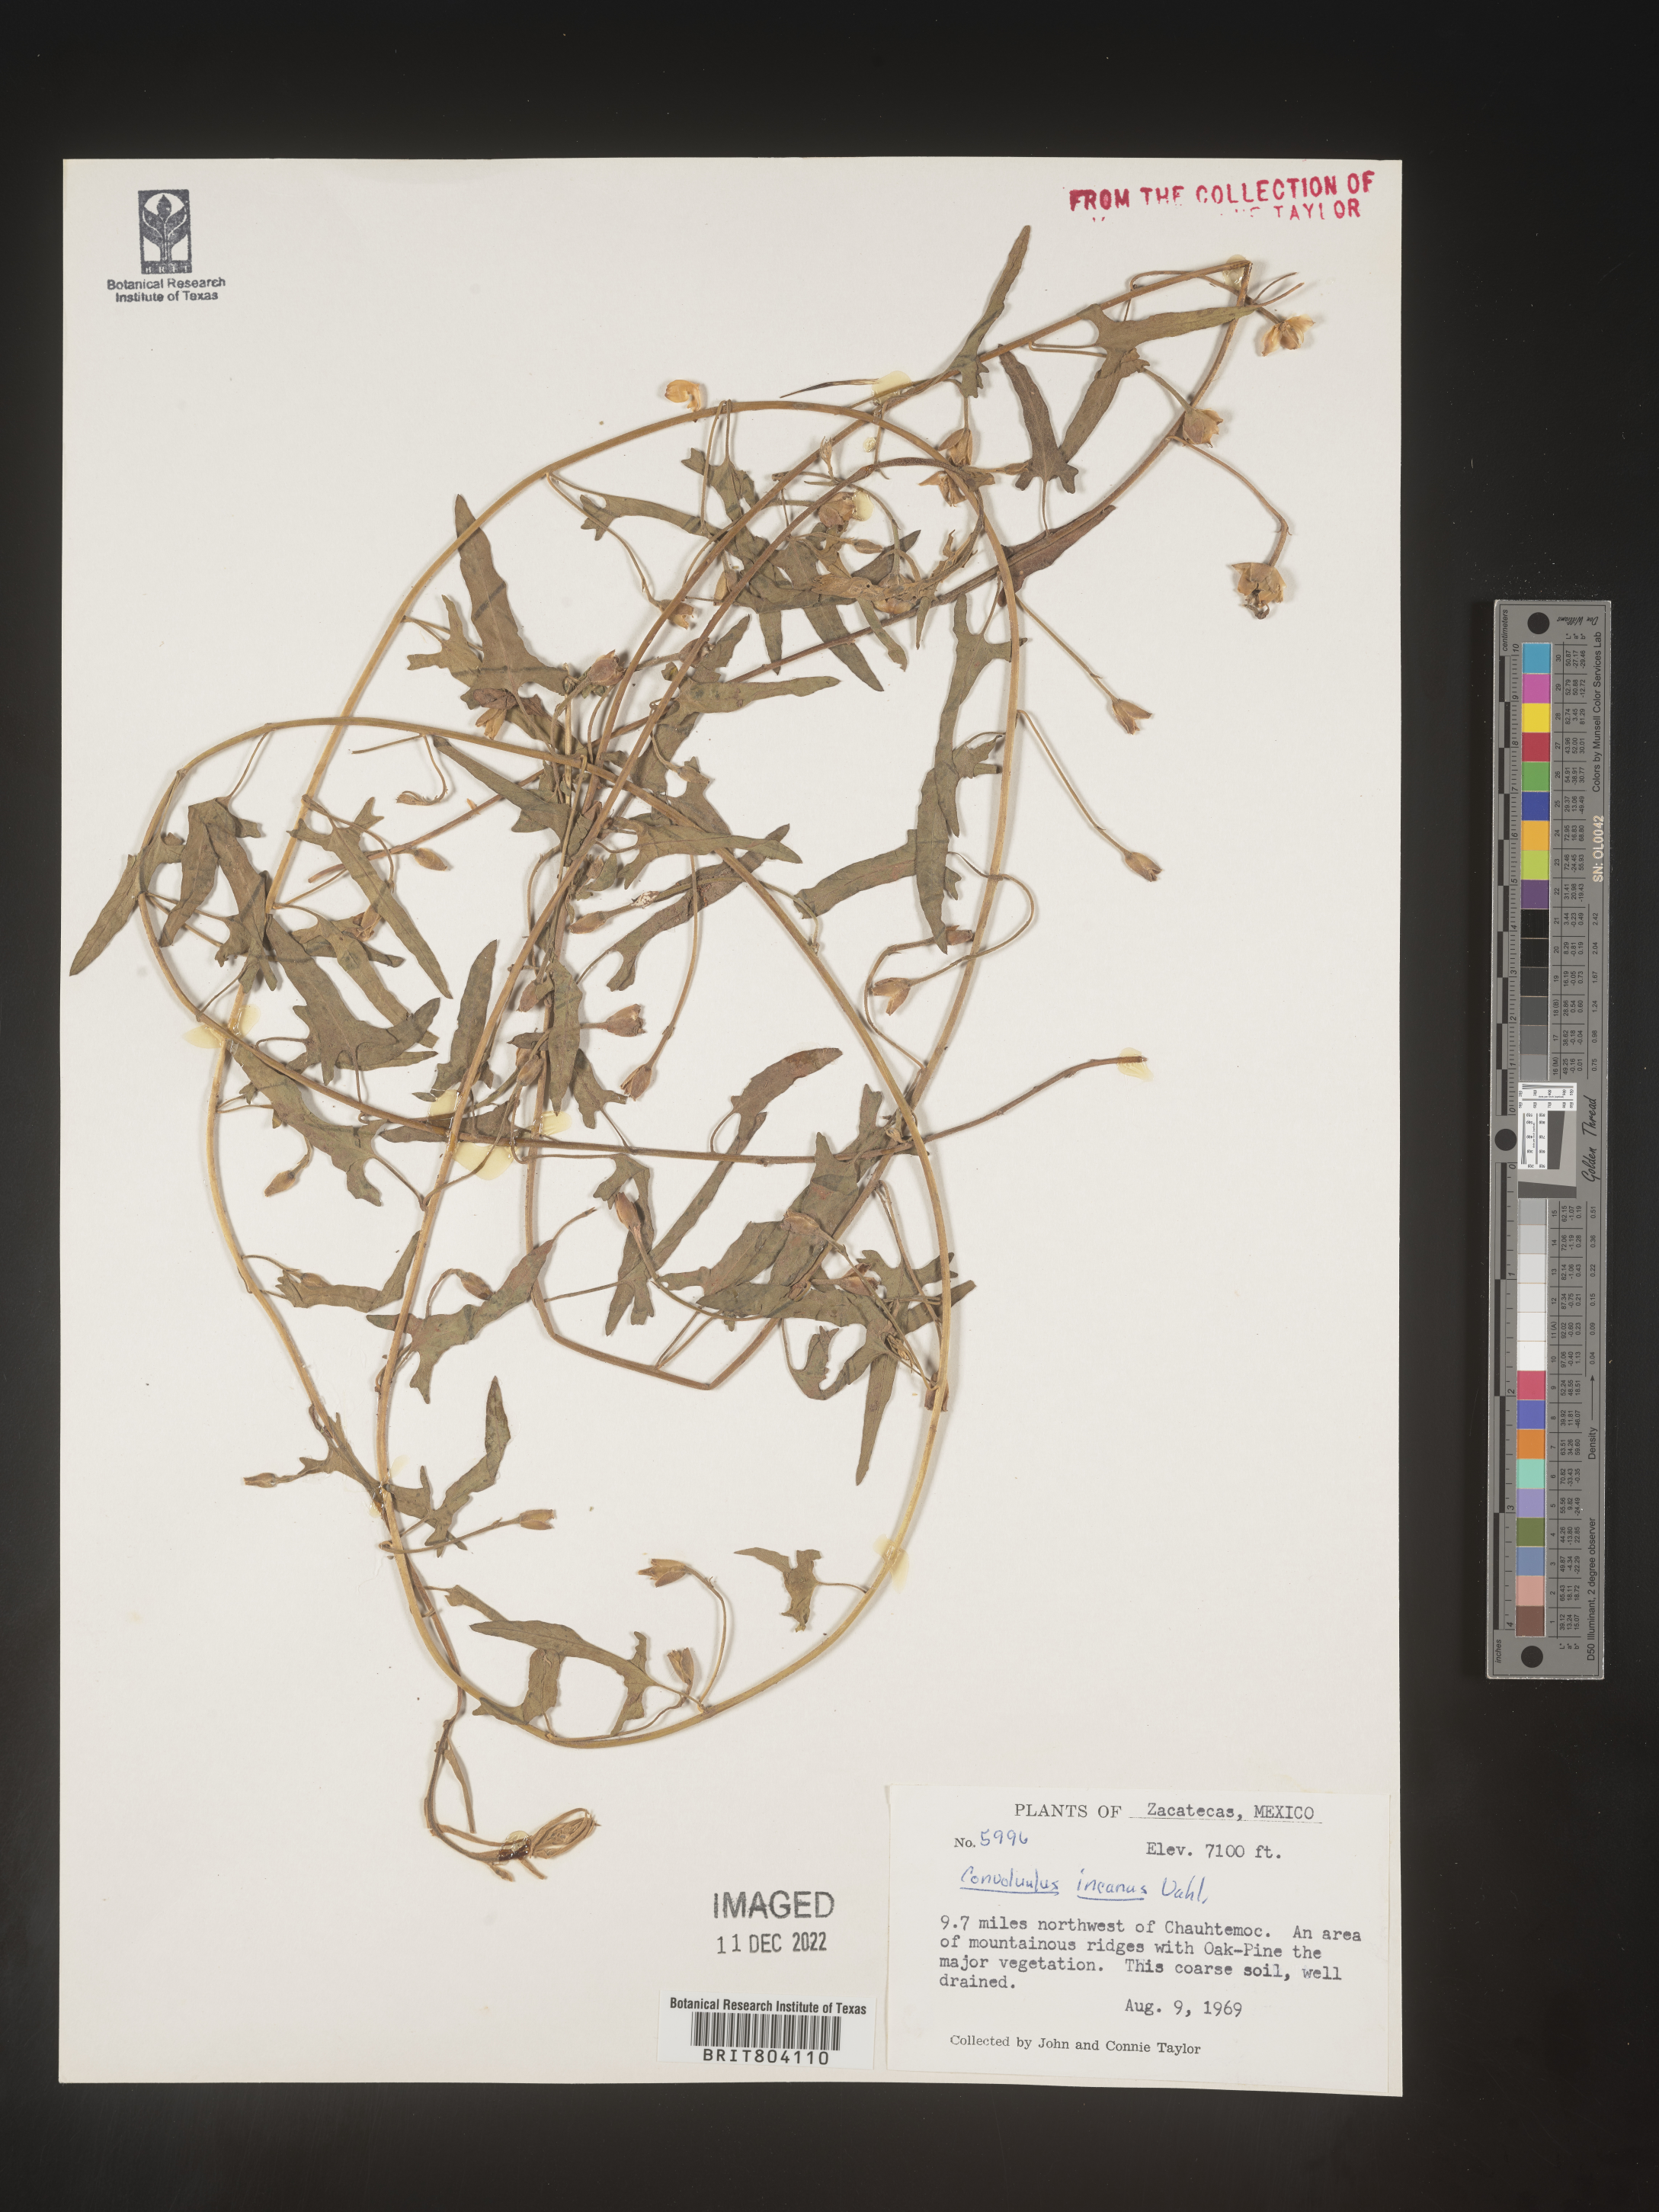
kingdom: Plantae
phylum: Tracheophyta
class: Magnoliopsida
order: Solanales
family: Convolvulaceae
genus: Convolvulus
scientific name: Convolvulus
